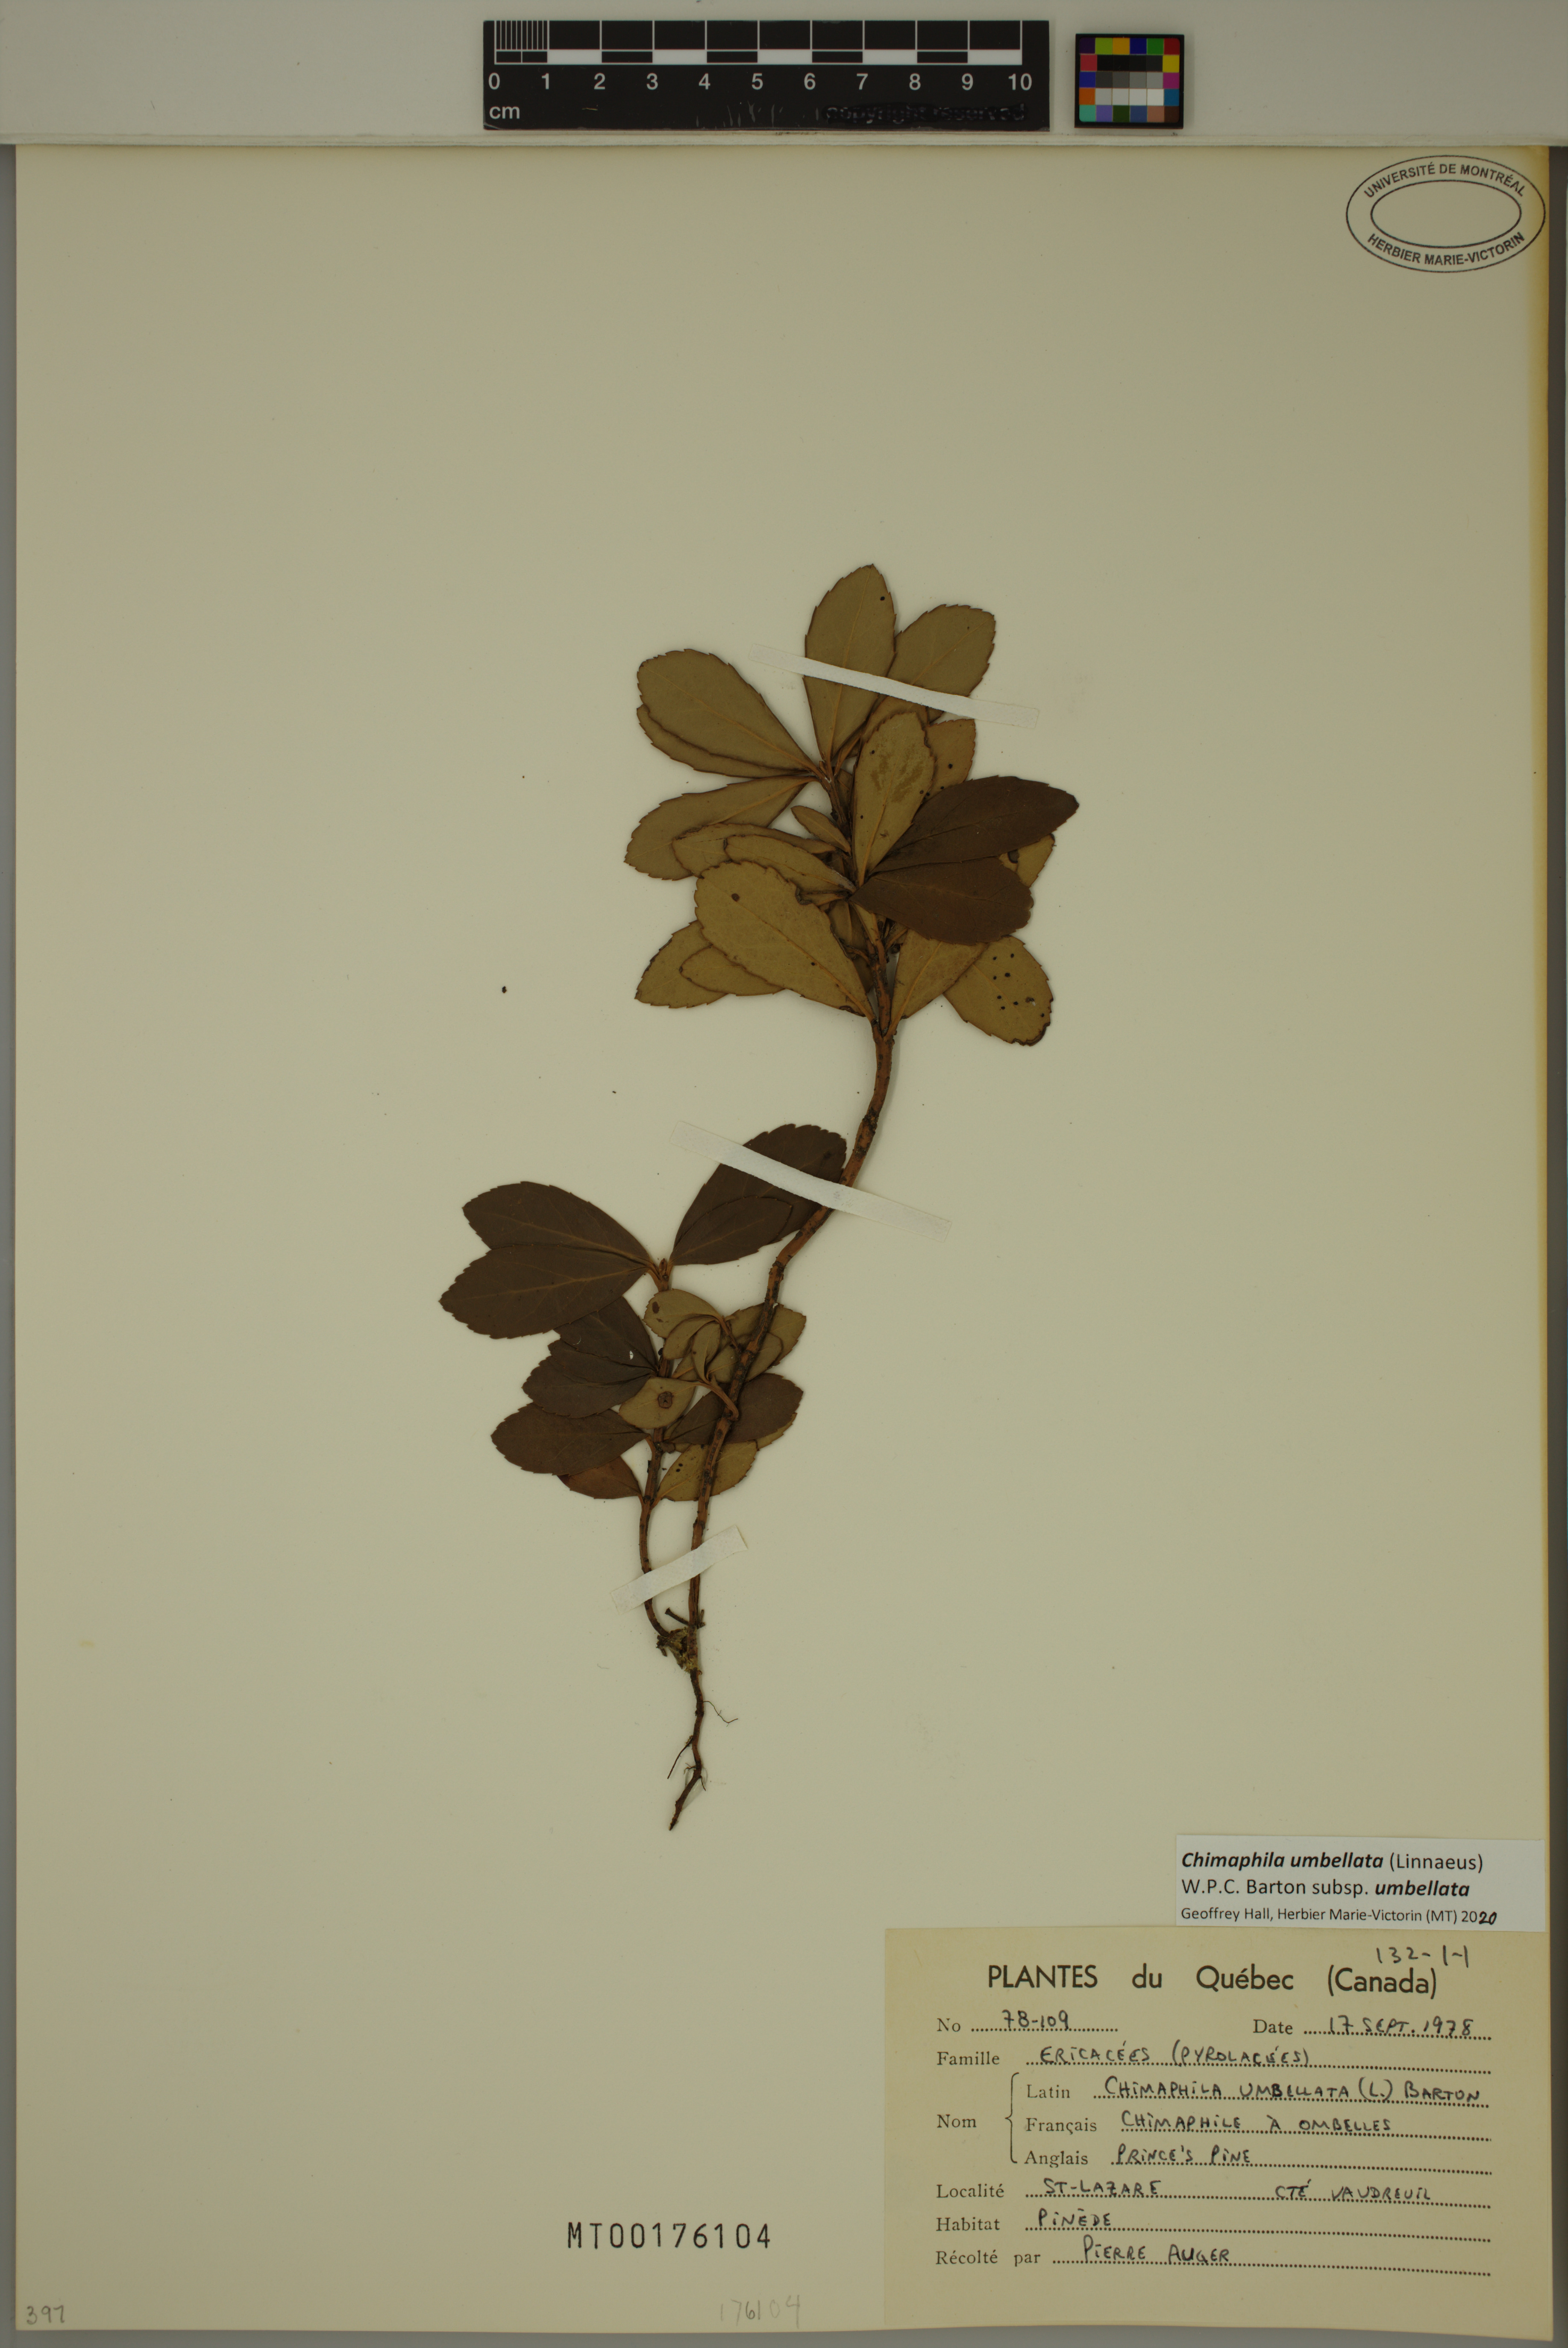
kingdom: Plantae
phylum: Tracheophyta
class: Magnoliopsida
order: Ericales
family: Ericaceae
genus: Chimaphila
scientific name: Chimaphila umbellata
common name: Pipsissewa
